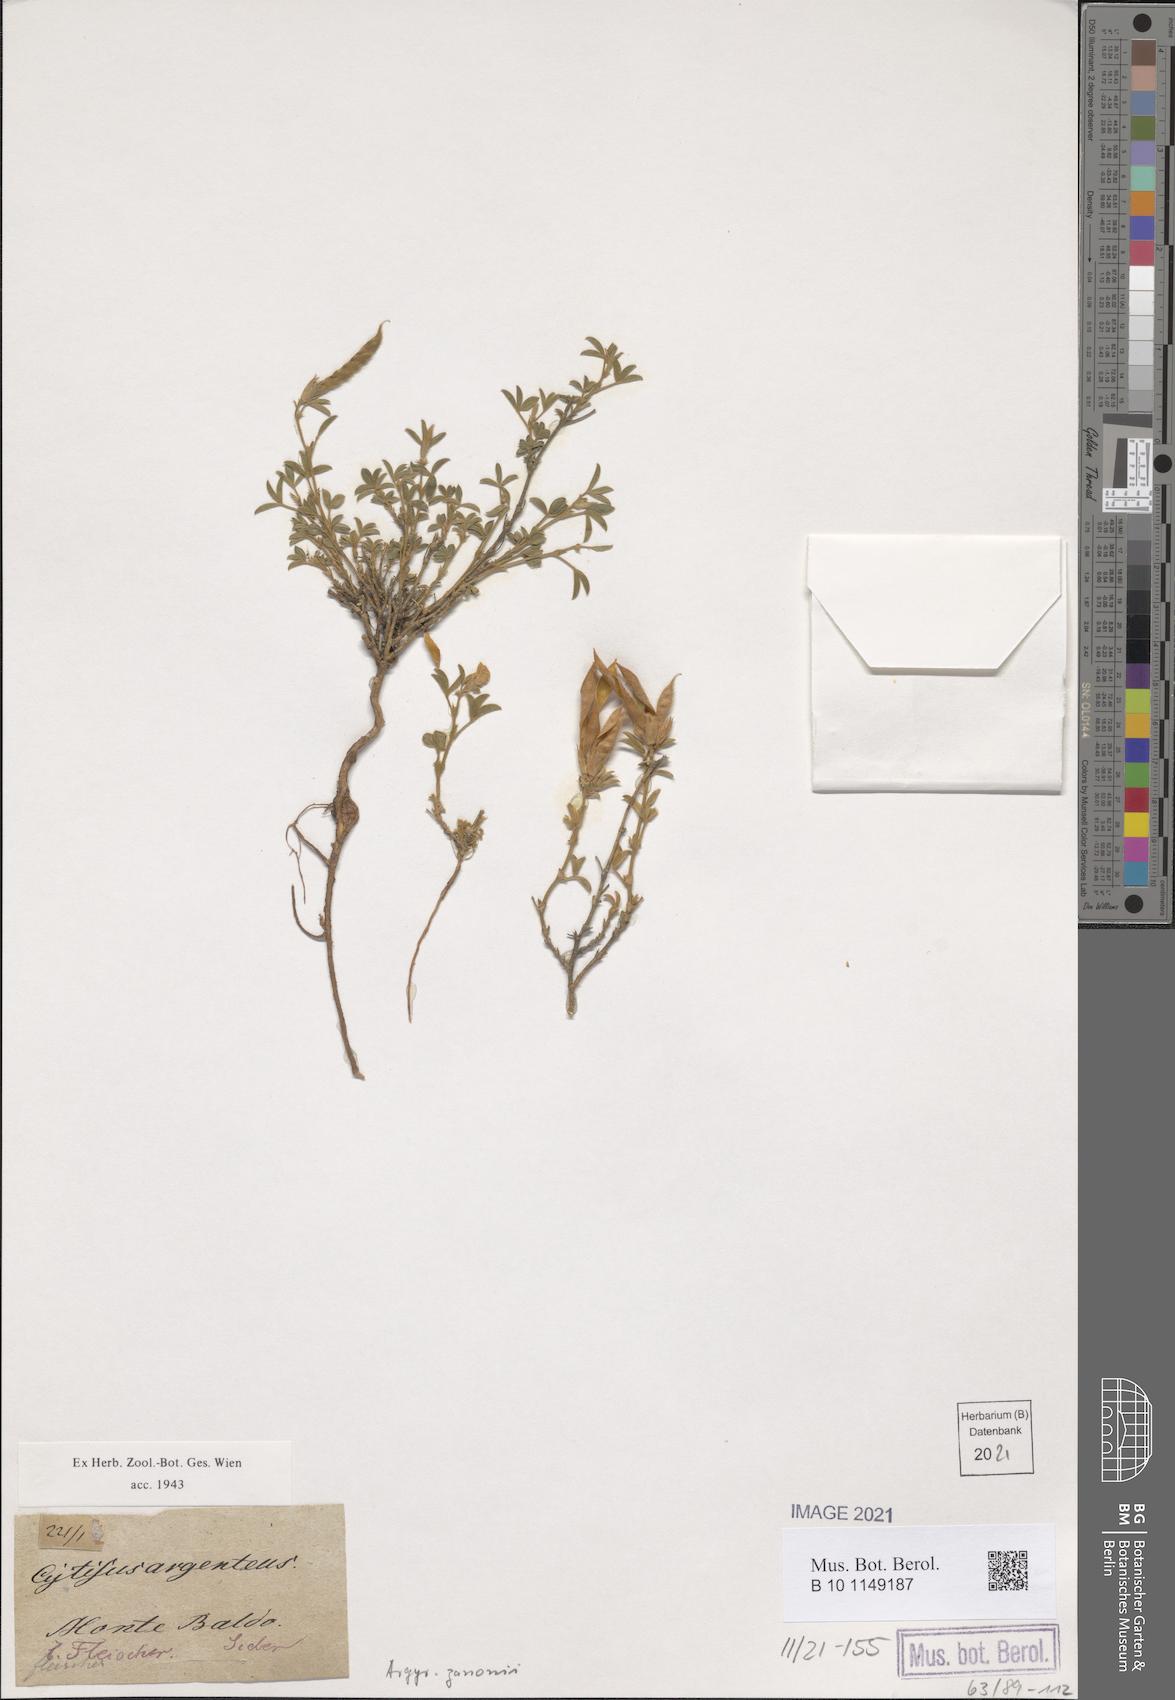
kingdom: Plantae
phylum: Tracheophyta
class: Magnoliopsida
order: Fabales
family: Fabaceae
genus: Argyrolobium
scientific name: Argyrolobium zanonii
